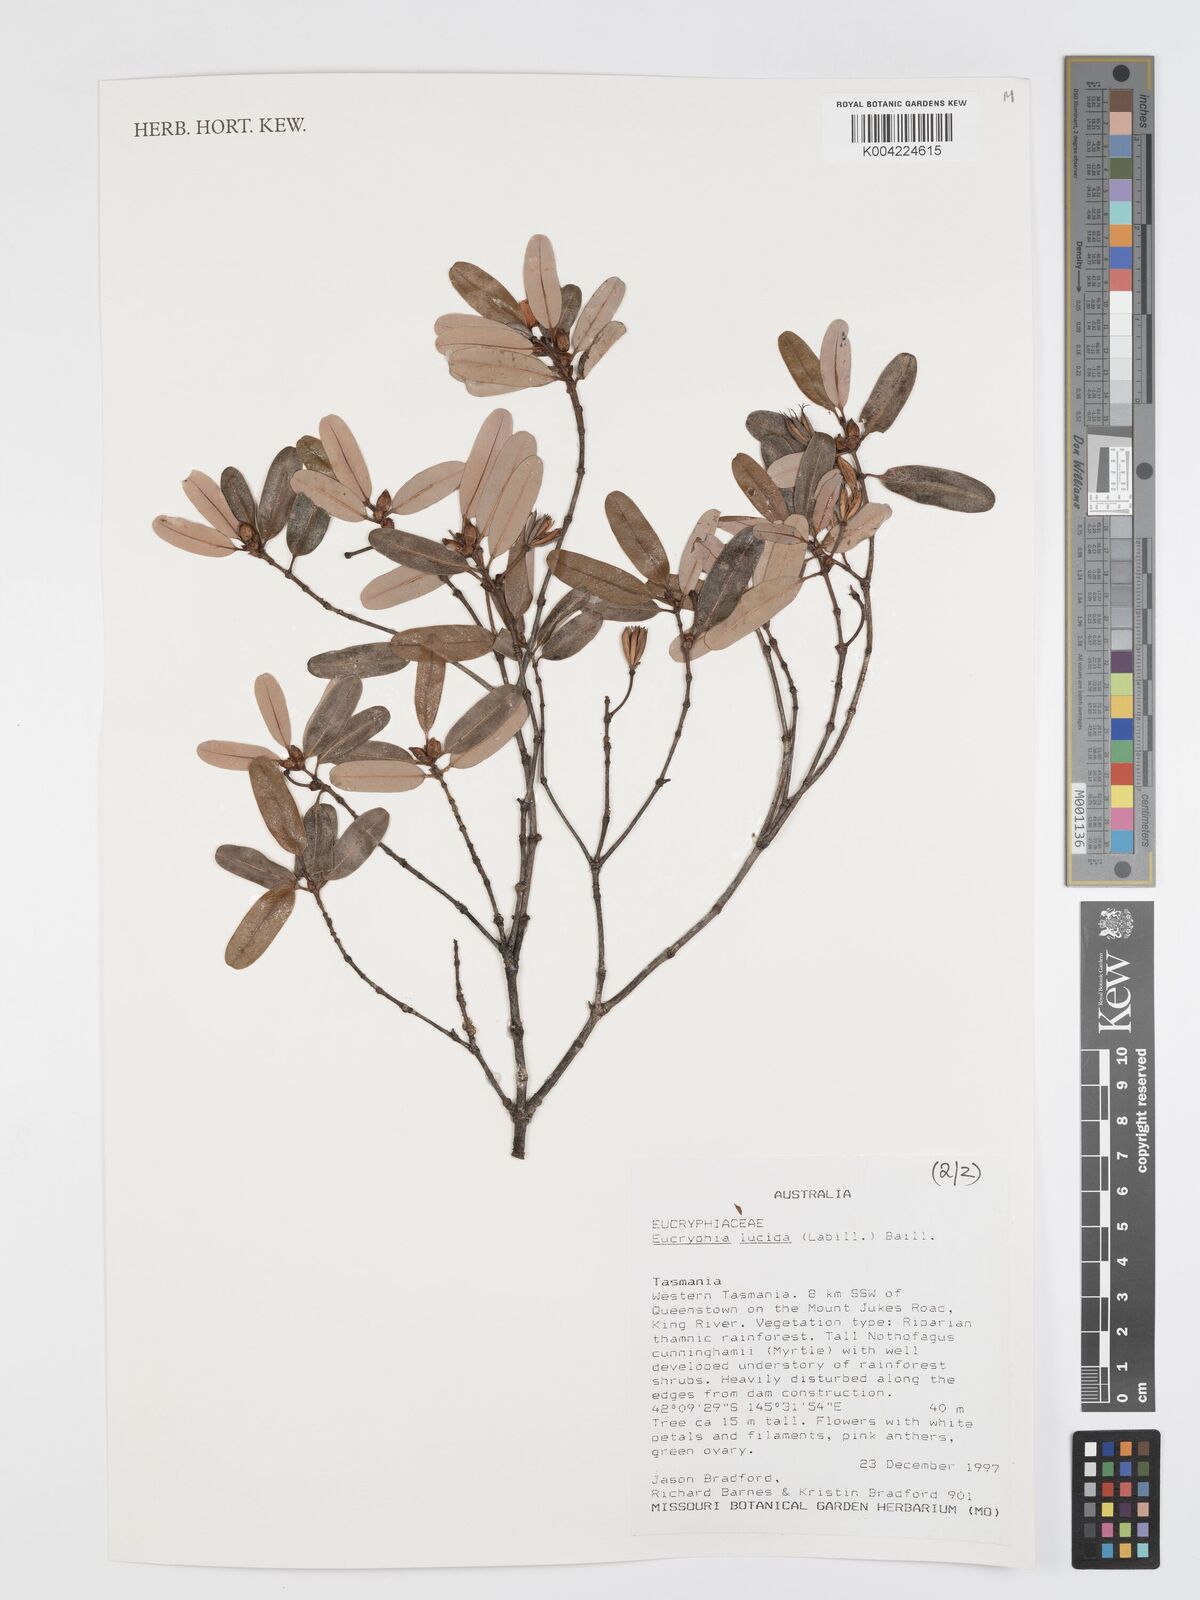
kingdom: Plantae
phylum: Tracheophyta
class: Magnoliopsida
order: Oxalidales
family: Cunoniaceae
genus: Eucryphia
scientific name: Eucryphia lucida
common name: Leatherwood
